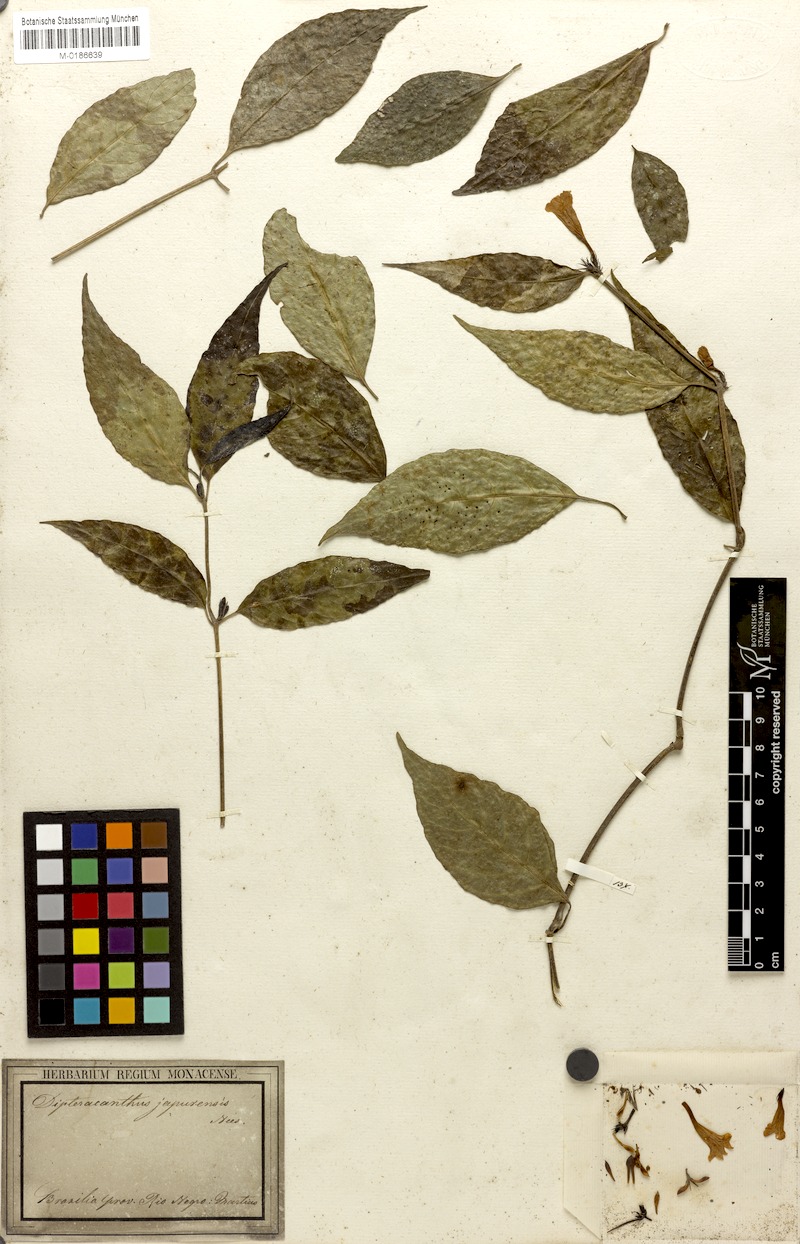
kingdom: Plantae
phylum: Tracheophyta
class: Magnoliopsida
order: Lamiales
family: Acanthaceae
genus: Ruellia
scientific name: Ruellia terminalis
